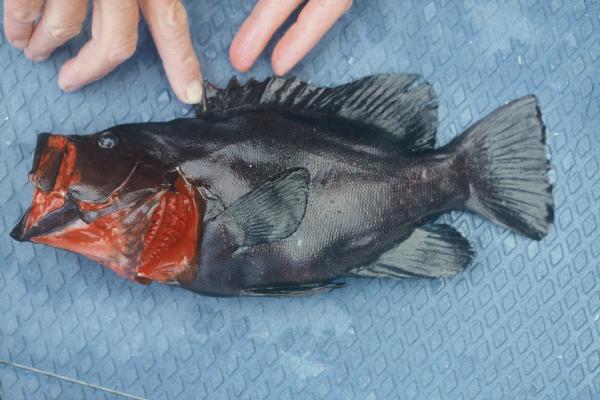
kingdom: Animalia
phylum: Chordata
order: Perciformes
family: Serranidae
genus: Aethaloperca
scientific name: Aethaloperca rogaa
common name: Redmouth grouper
